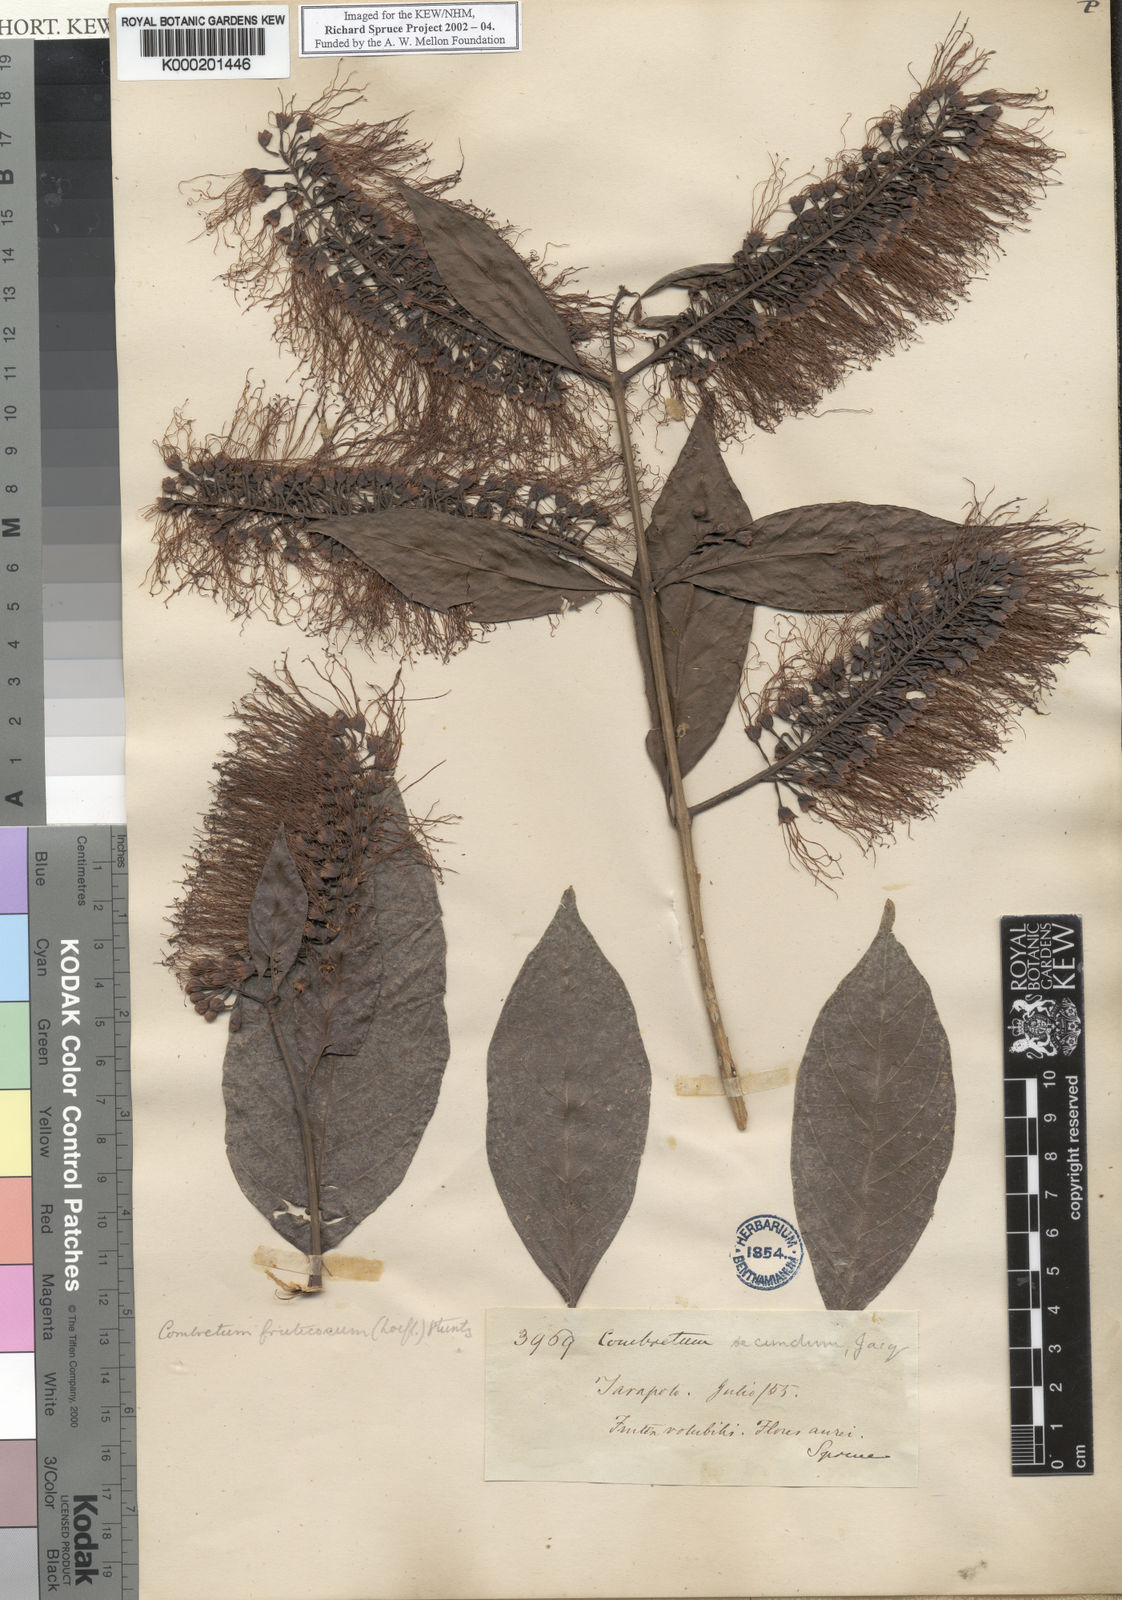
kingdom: Plantae
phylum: Tracheophyta
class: Magnoliopsida
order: Myrtales
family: Combretaceae
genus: Combretum
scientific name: Combretum fruticosum
